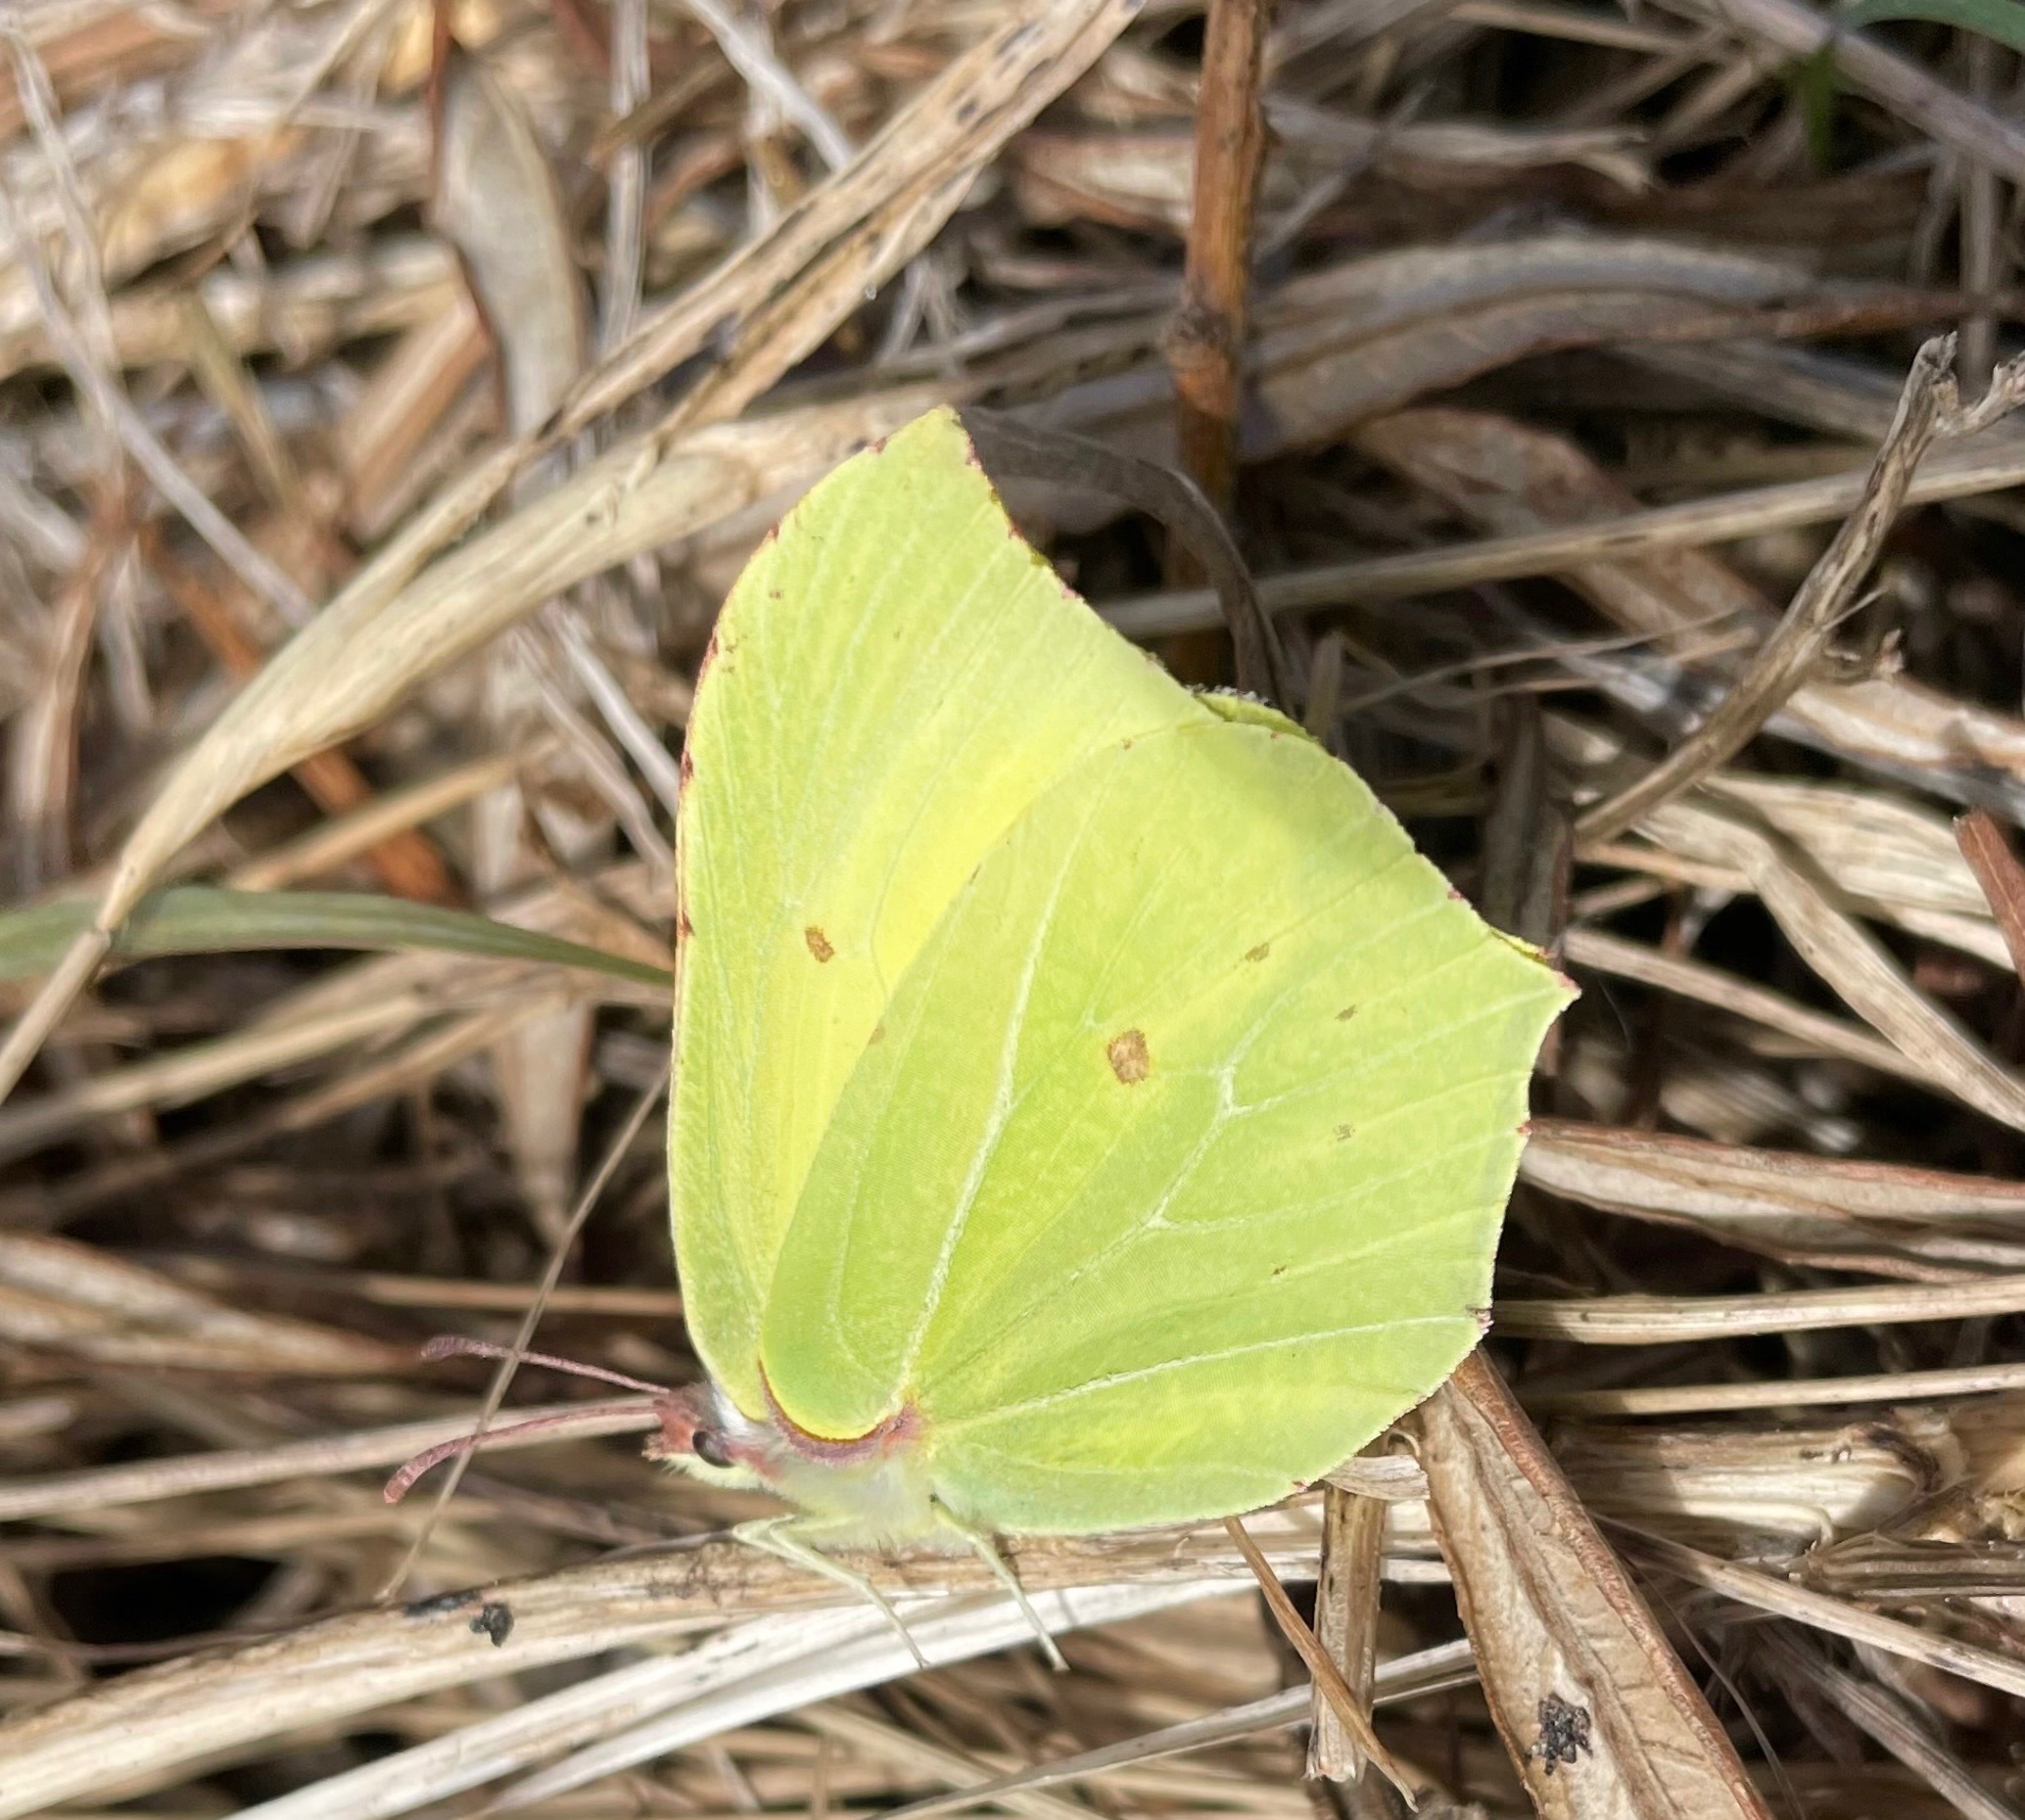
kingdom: Animalia
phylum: Arthropoda
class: Insecta
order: Lepidoptera
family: Pieridae
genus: Gonepteryx
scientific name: Gonepteryx rhamni
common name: Citronsommerfugl
